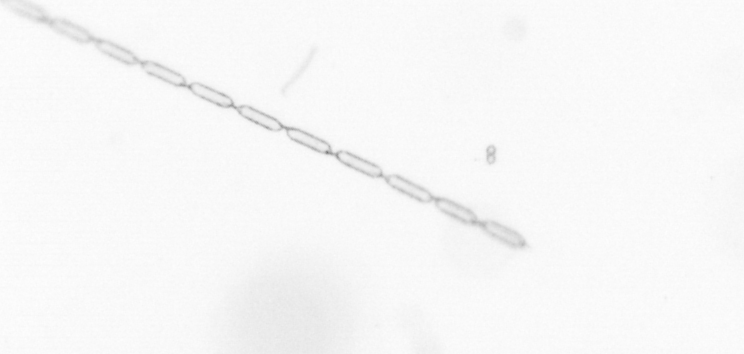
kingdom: Chromista
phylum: Ochrophyta
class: Bacillariophyceae
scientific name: Bacillariophyceae
